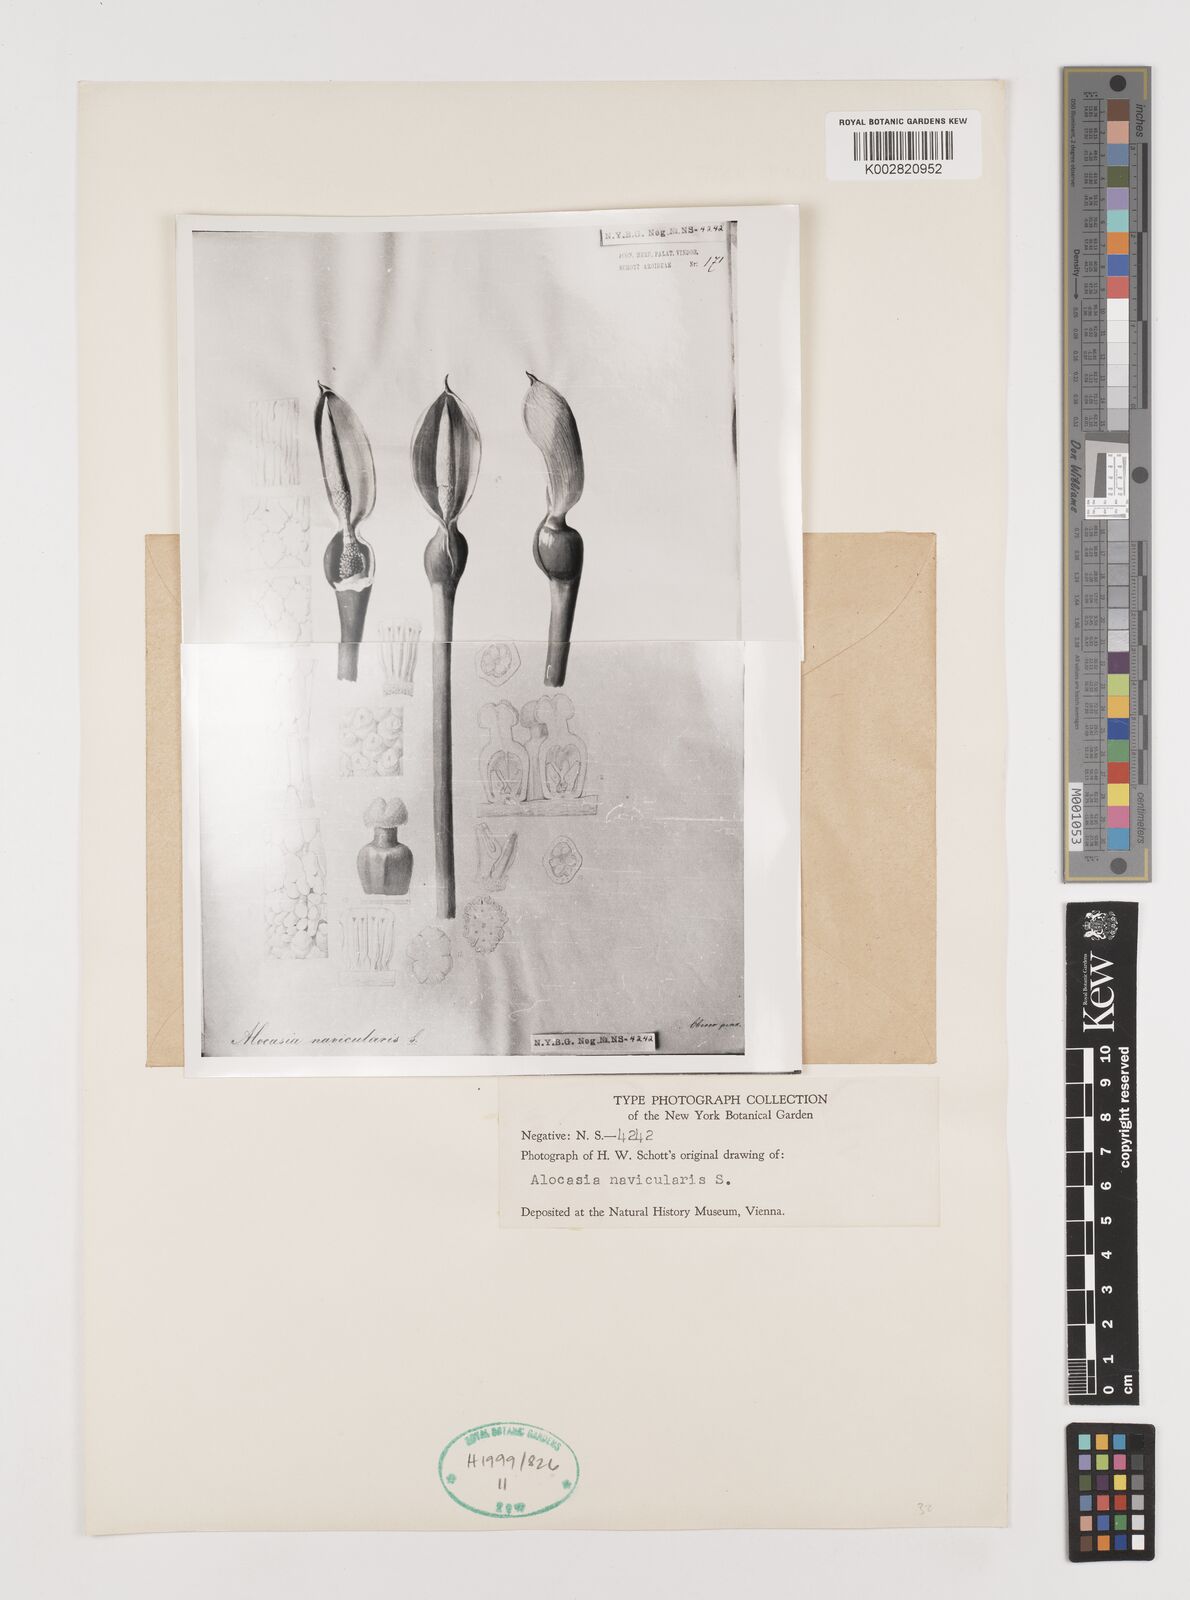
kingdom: Plantae
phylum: Tracheophyta
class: Liliopsida
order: Alismatales
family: Araceae
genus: Alocasia
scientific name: Alocasia navicularis
